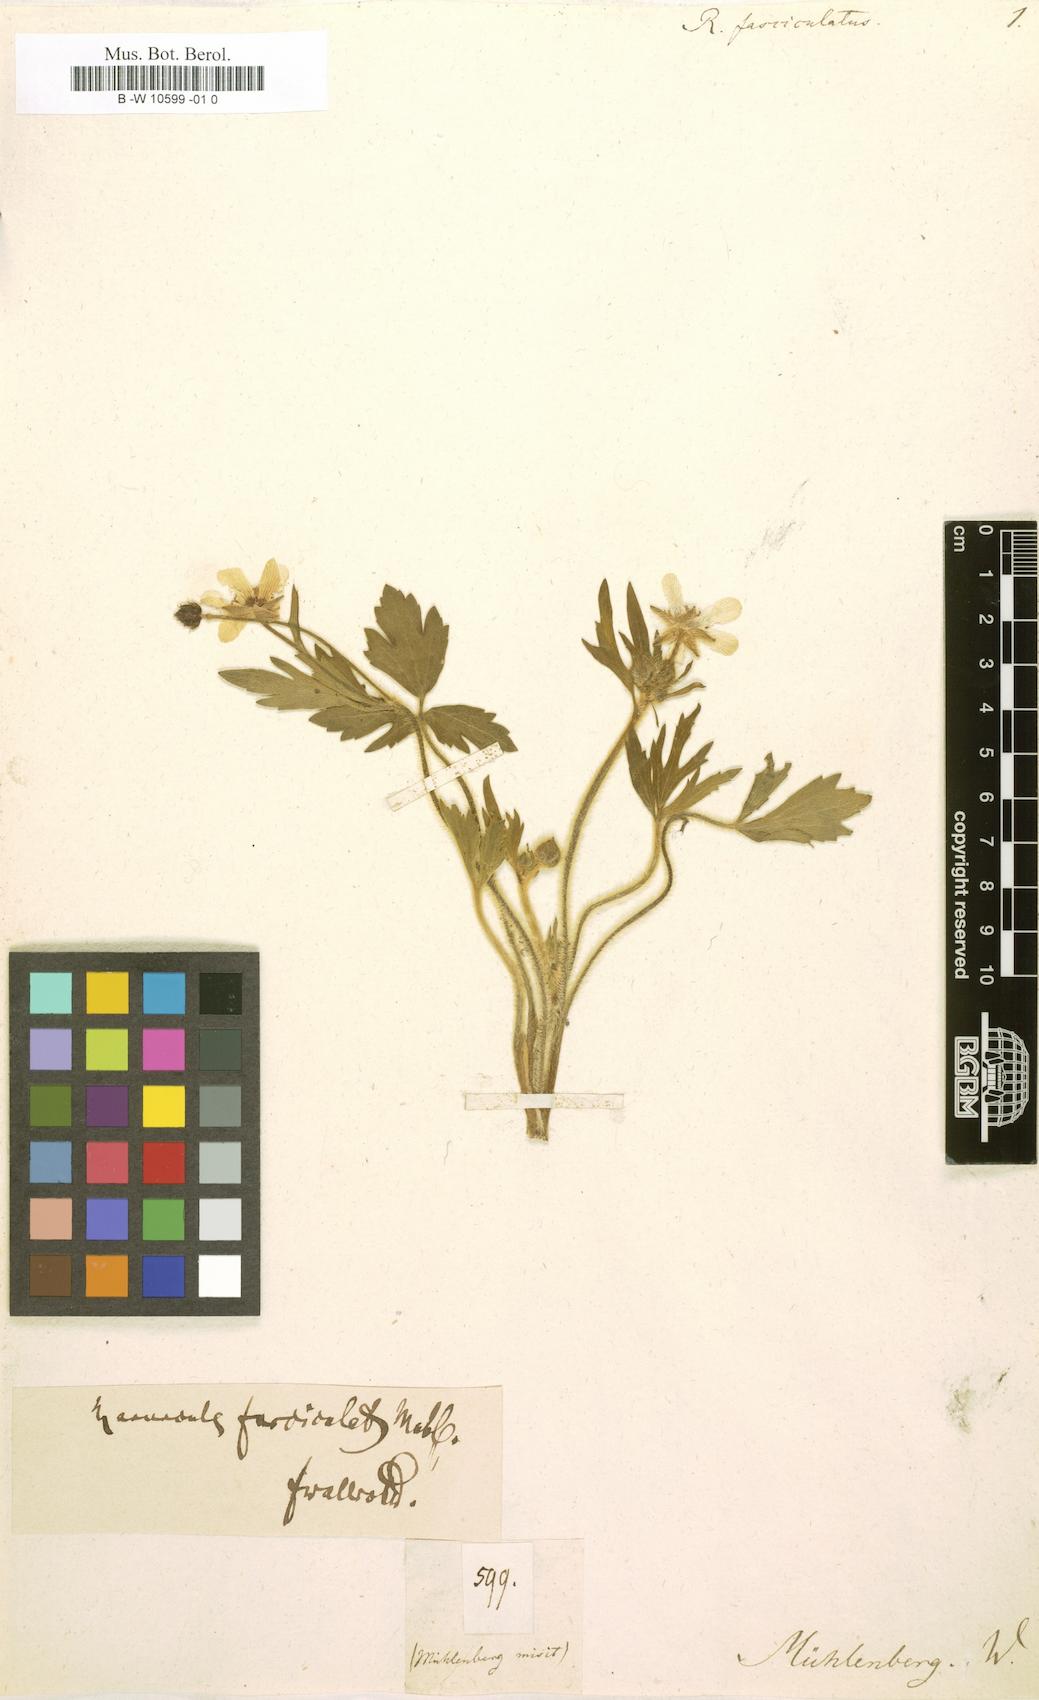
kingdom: Plantae
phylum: Tracheophyta
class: Magnoliopsida
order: Ranunculales
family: Ranunculaceae
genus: Ranunculus
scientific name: Ranunculus petiolaris
